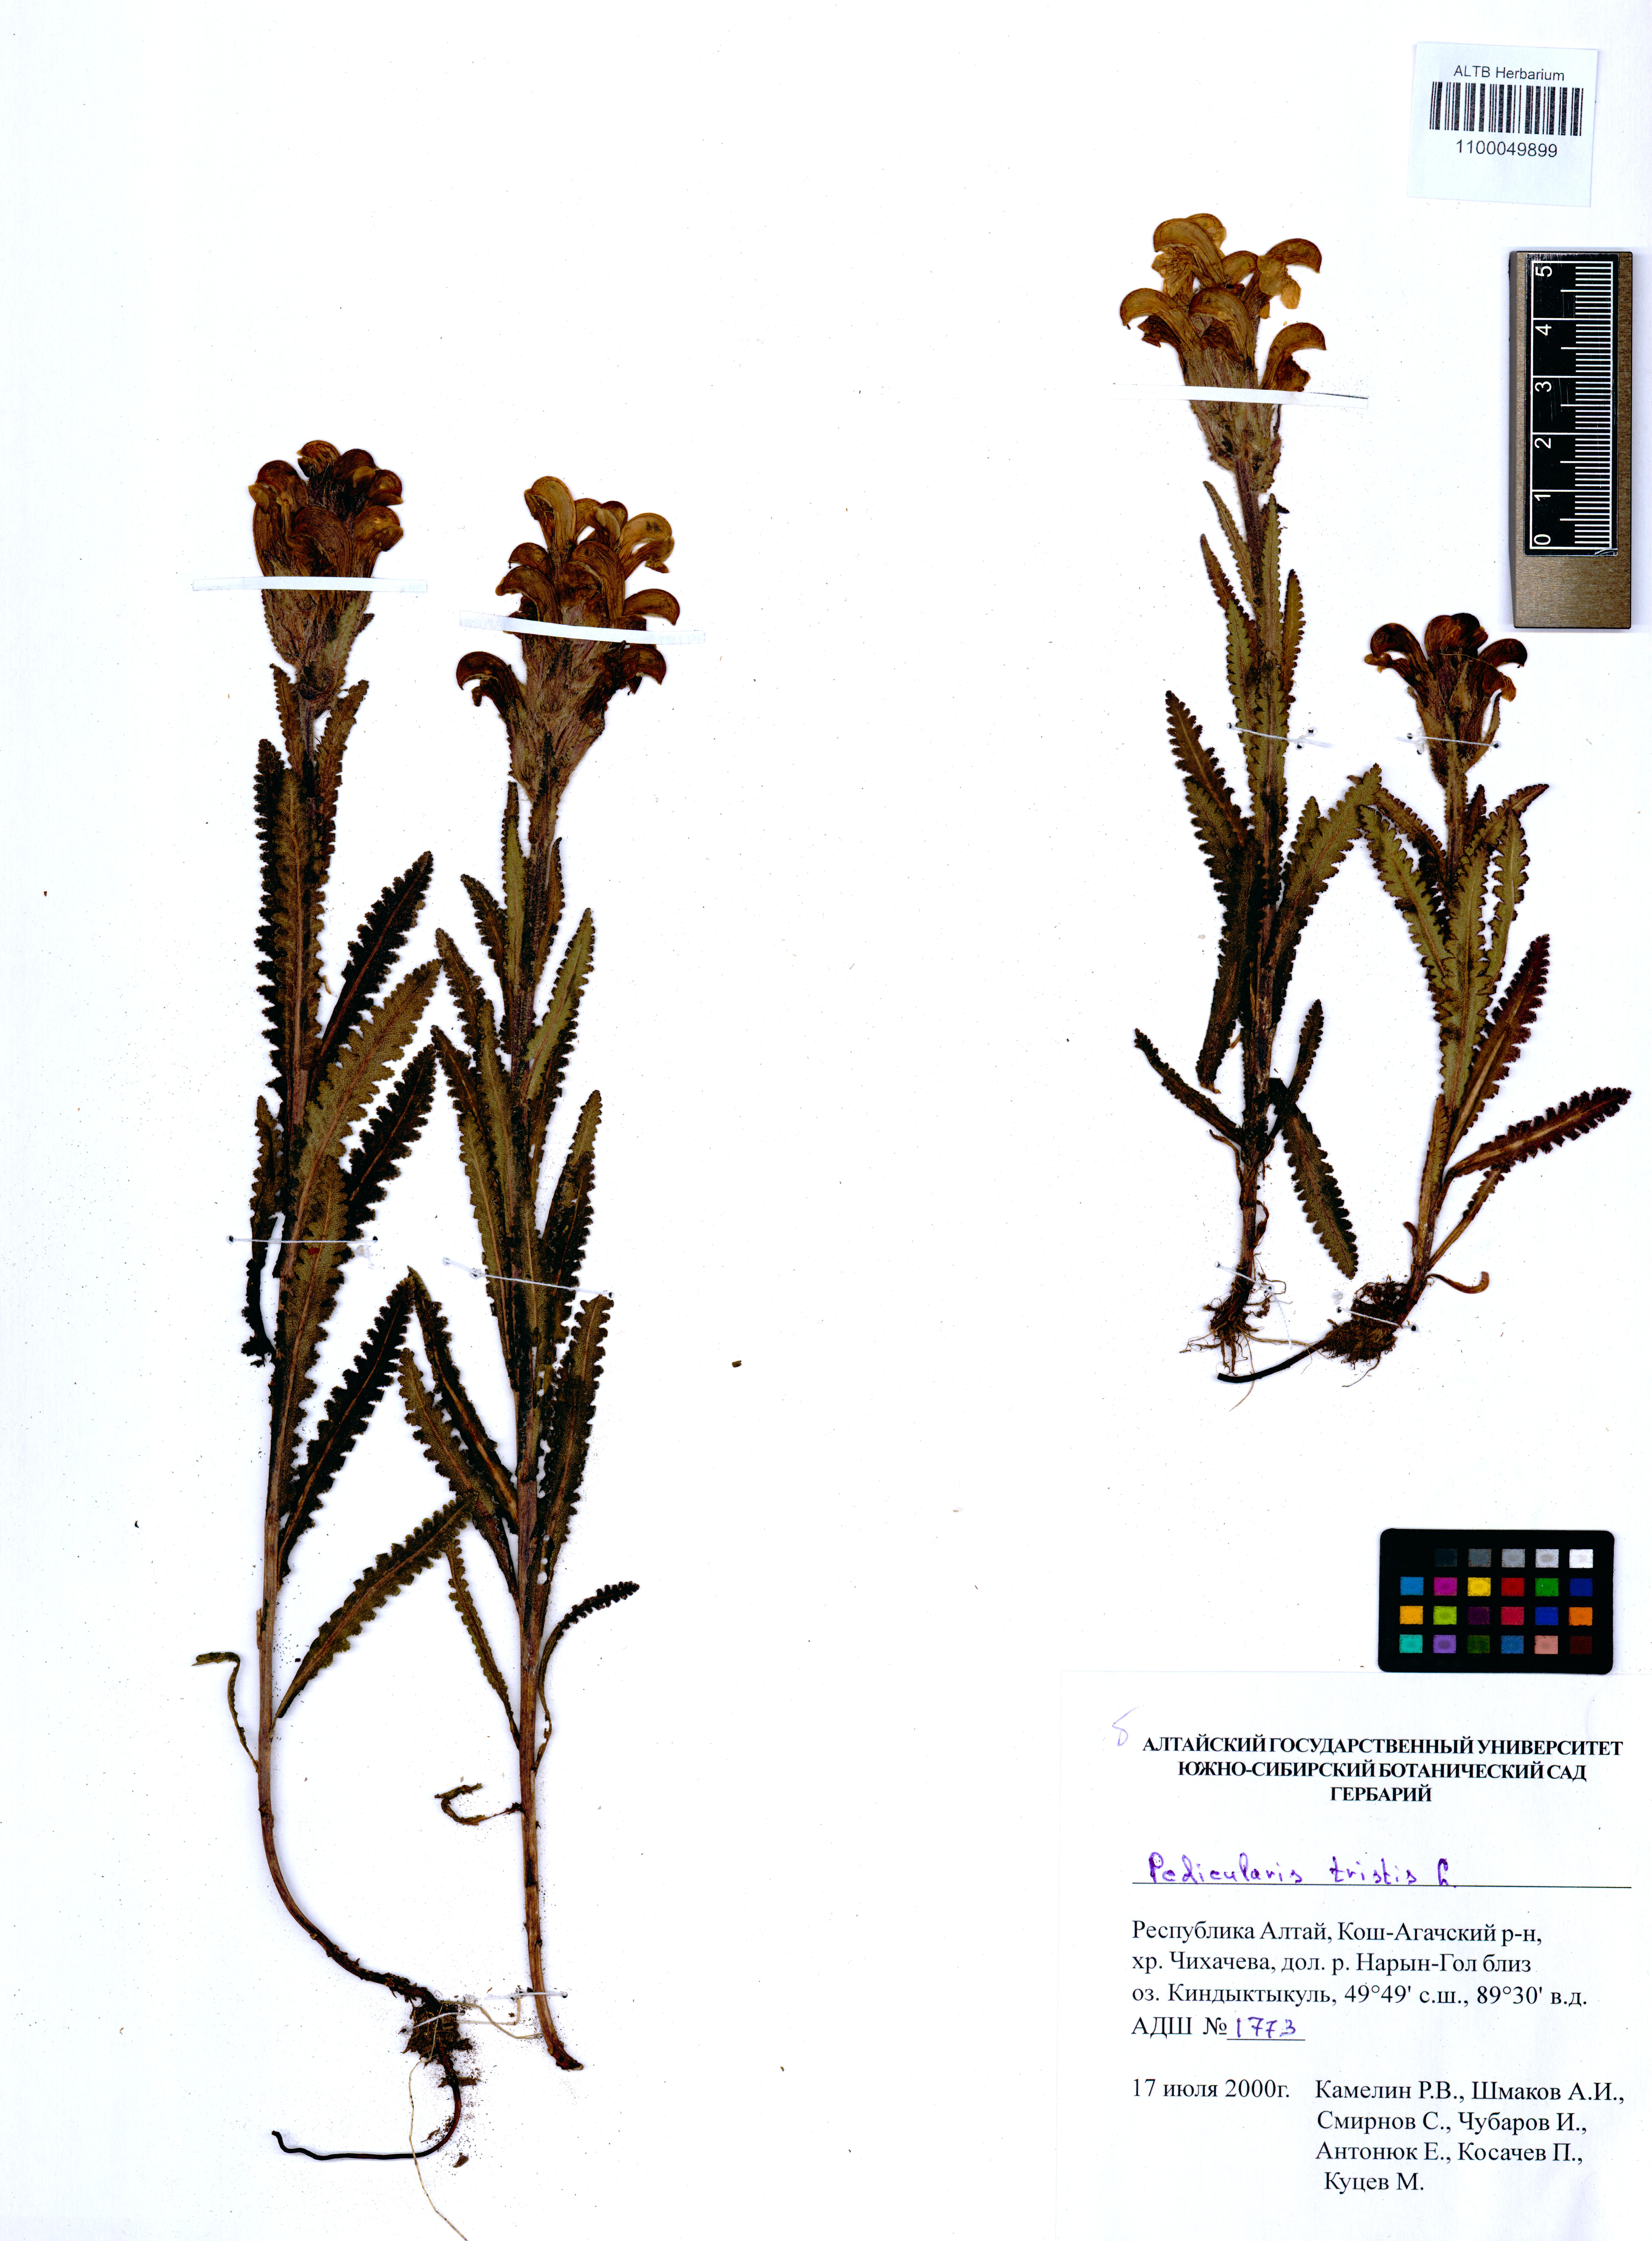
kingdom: Plantae
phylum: Tracheophyta
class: Magnoliopsida
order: Lamiales
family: Orobanchaceae
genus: Pedicularis
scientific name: Pedicularis tristis
